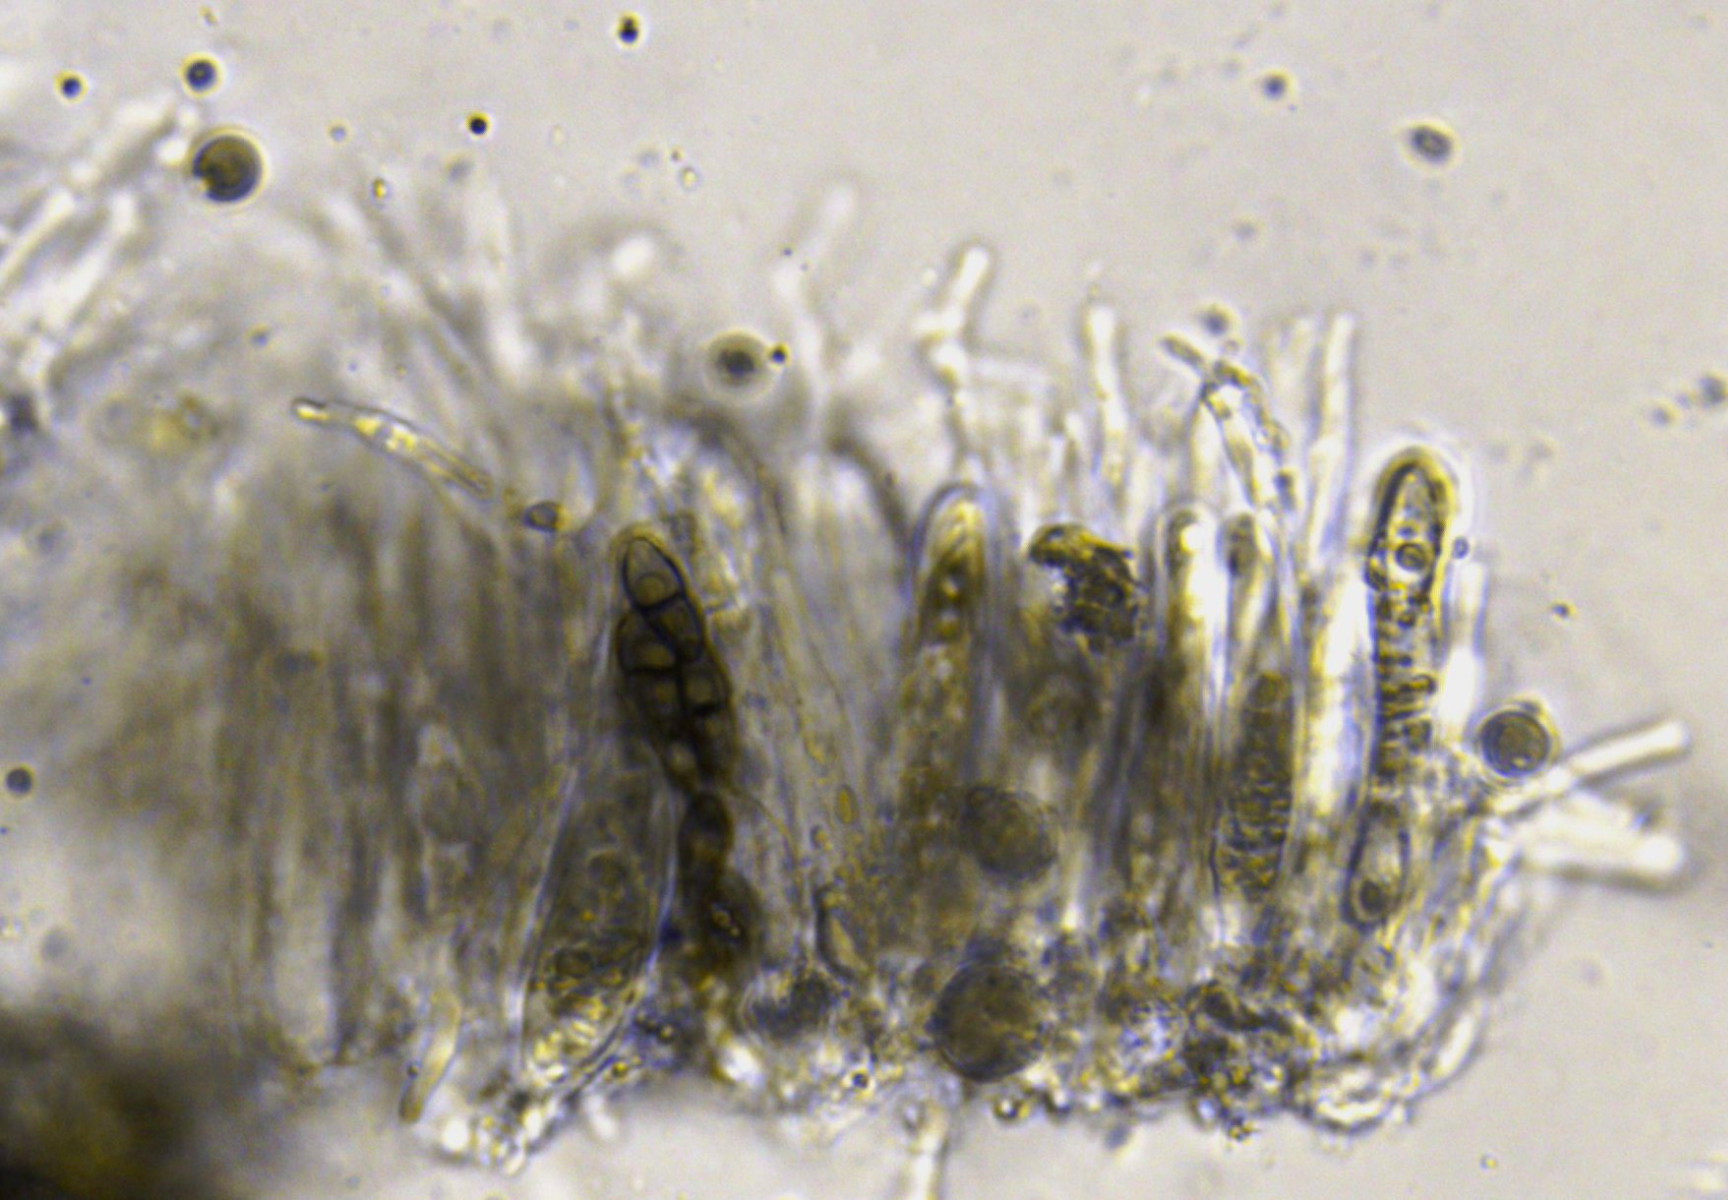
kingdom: Fungi
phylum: Ascomycota
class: Dothideomycetes
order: Pleosporales
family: Didymosphaeriaceae
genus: Letendraea
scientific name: Letendraea helminthicola
